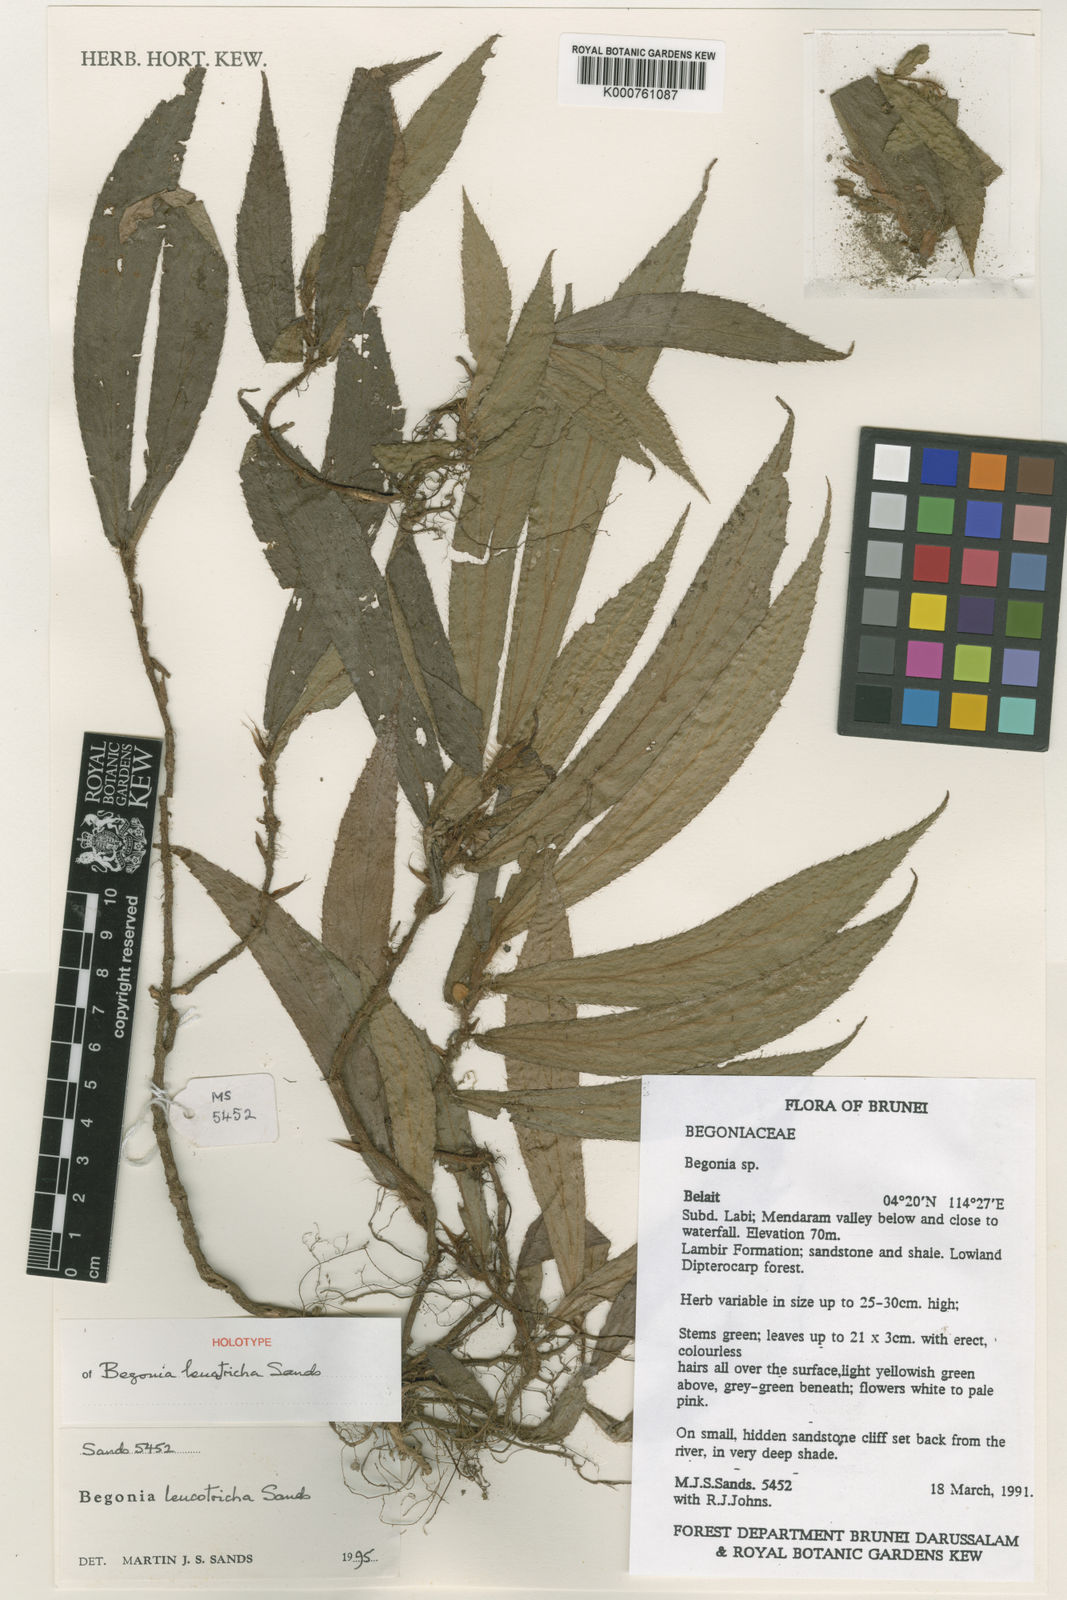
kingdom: Plantae
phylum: Tracheophyta
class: Magnoliopsida
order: Cucurbitales
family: Begoniaceae
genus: Begonia
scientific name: Begonia leucotricha
